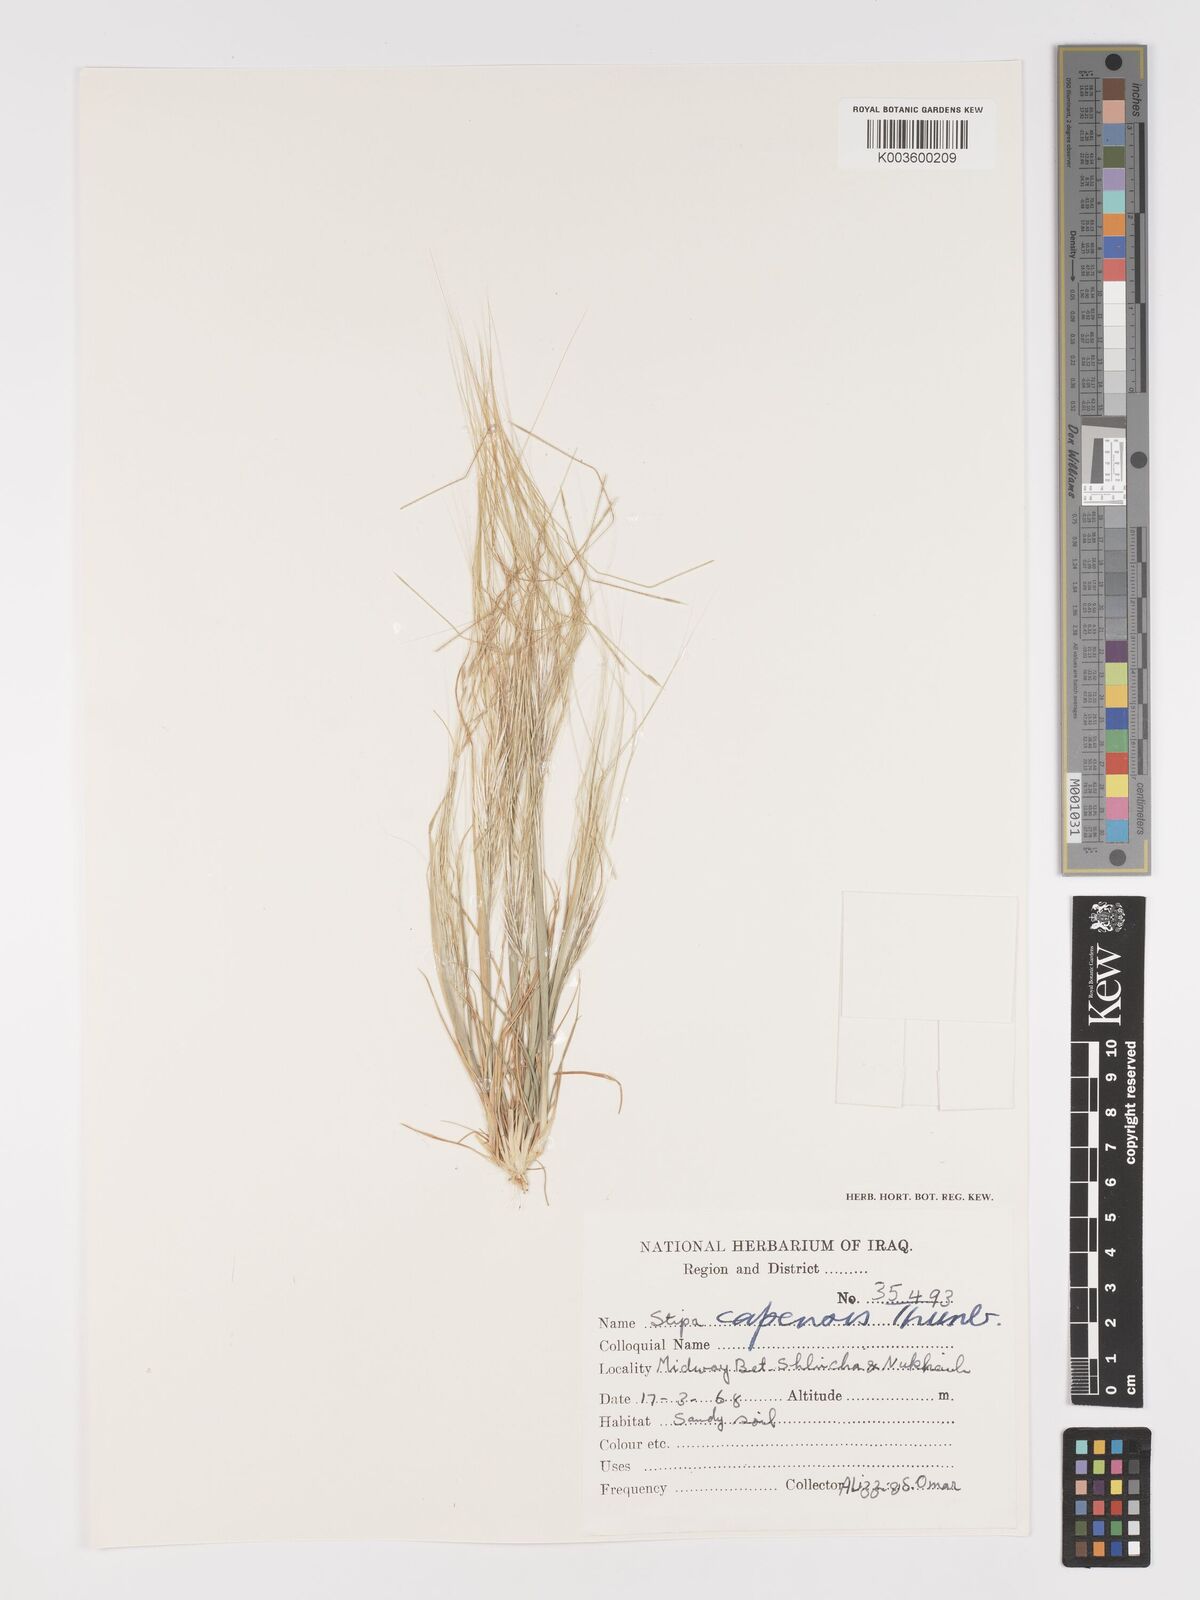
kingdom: Plantae
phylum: Tracheophyta
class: Liliopsida
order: Poales
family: Poaceae
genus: Stipellula
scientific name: Stipellula capensis
